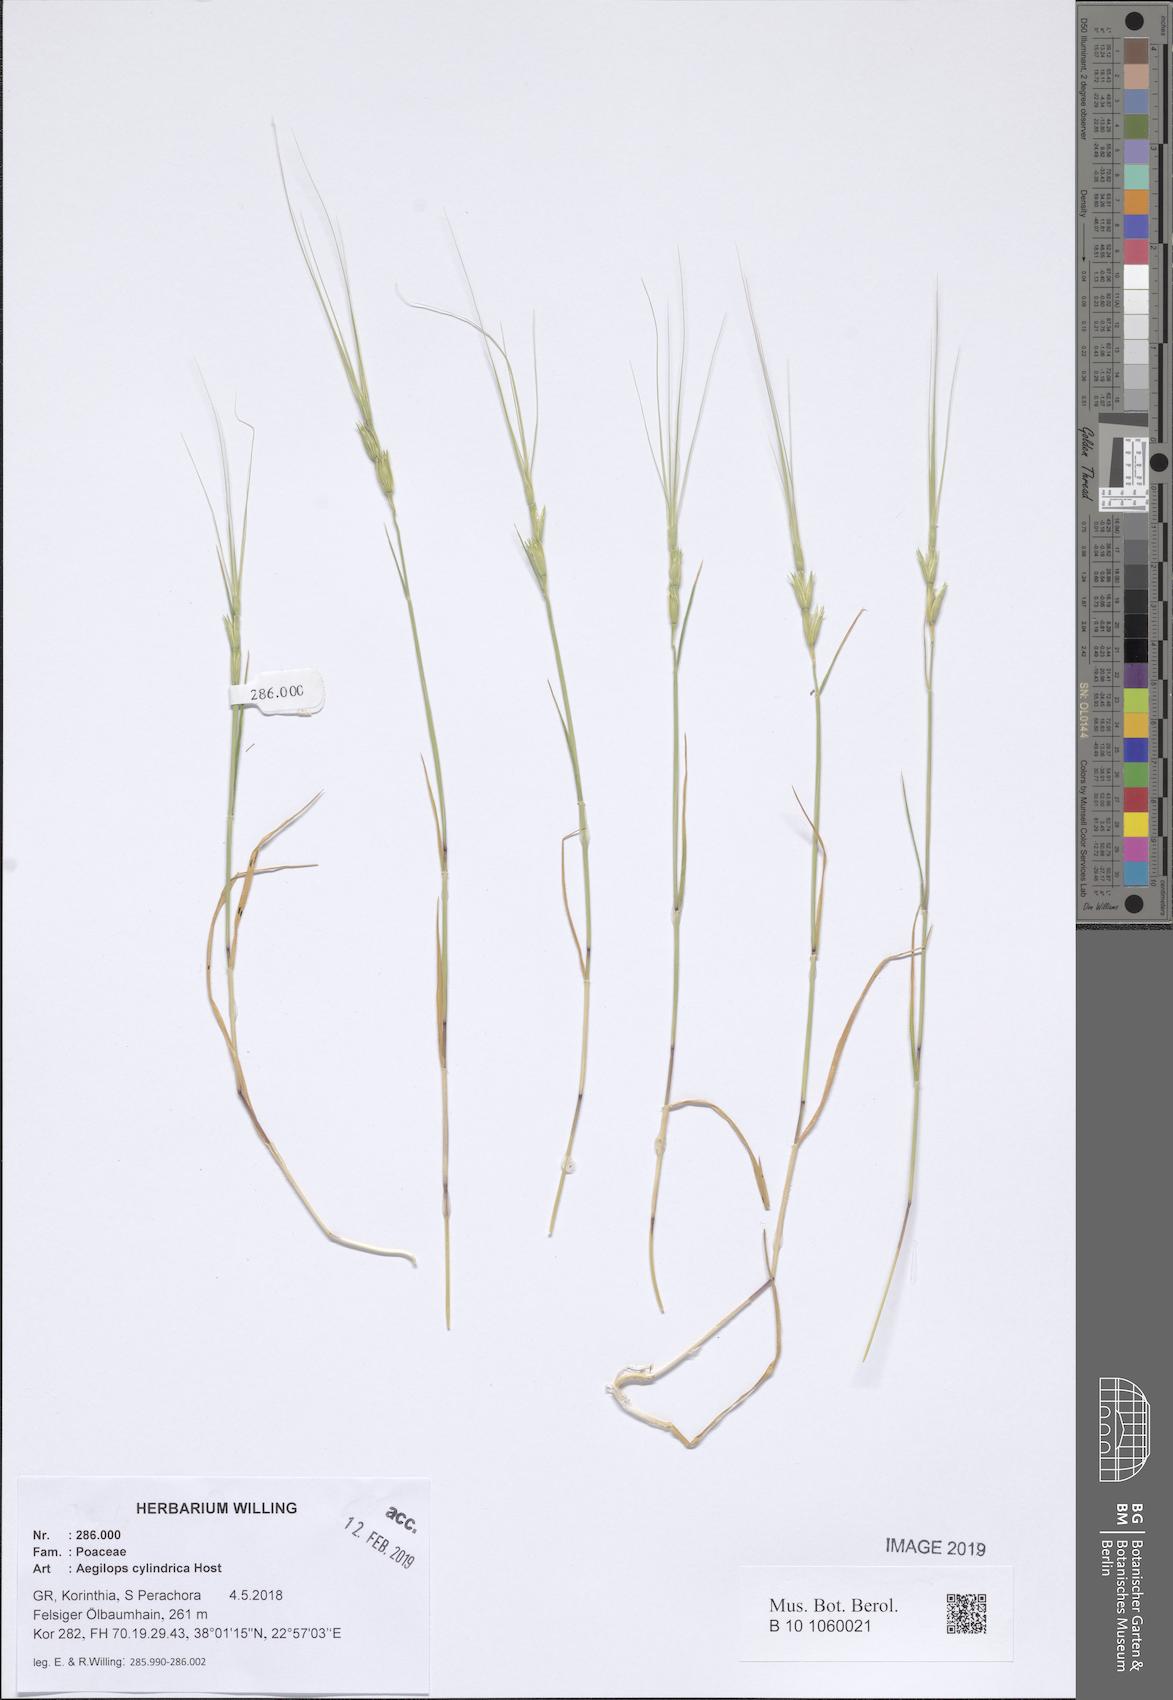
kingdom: Plantae
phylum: Tracheophyta
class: Liliopsida
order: Poales
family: Poaceae
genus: Aegilops
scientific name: Aegilops cylindrica
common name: Jointed goatgrass
